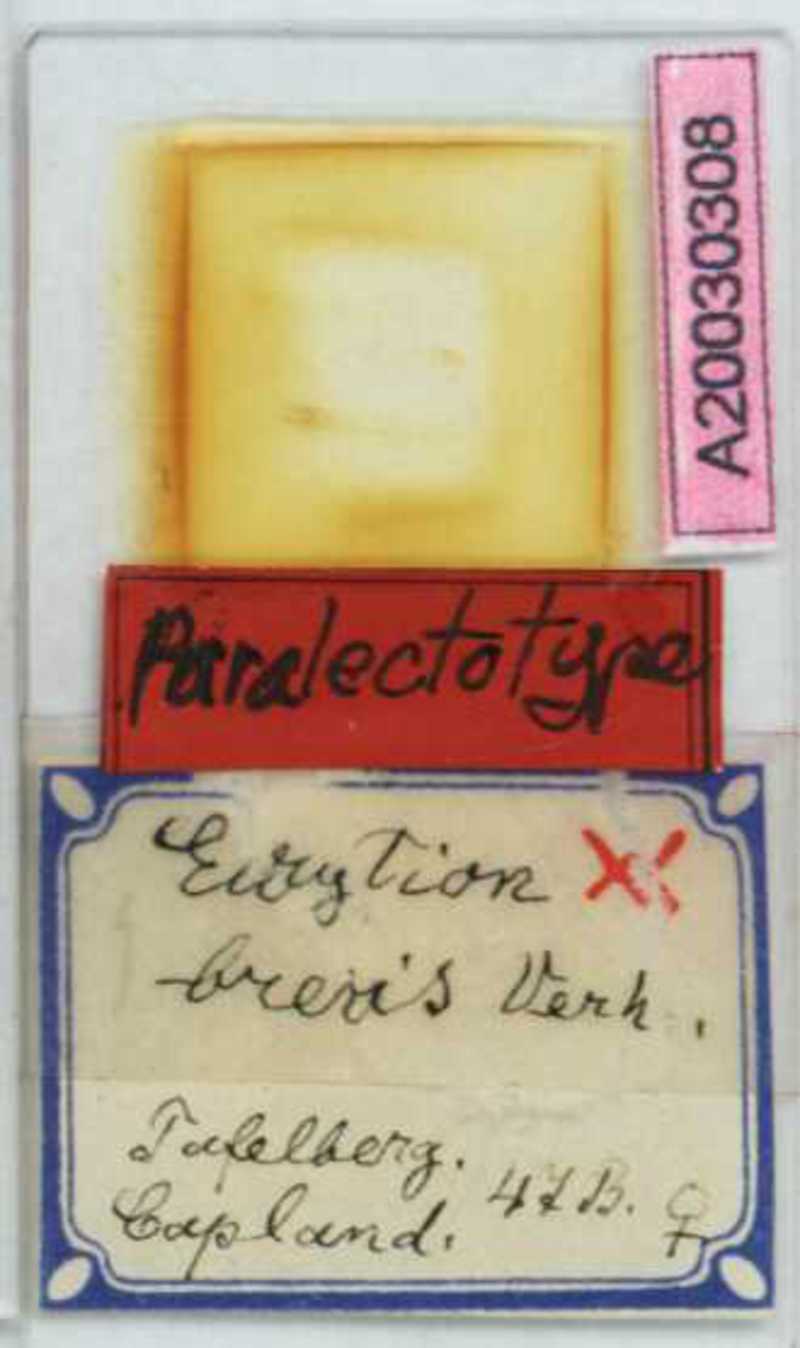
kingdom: Animalia
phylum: Arthropoda
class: Chilopoda
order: Geophilomorpha
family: Geophilidae
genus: Eurytion
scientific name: Eurytion brevis
